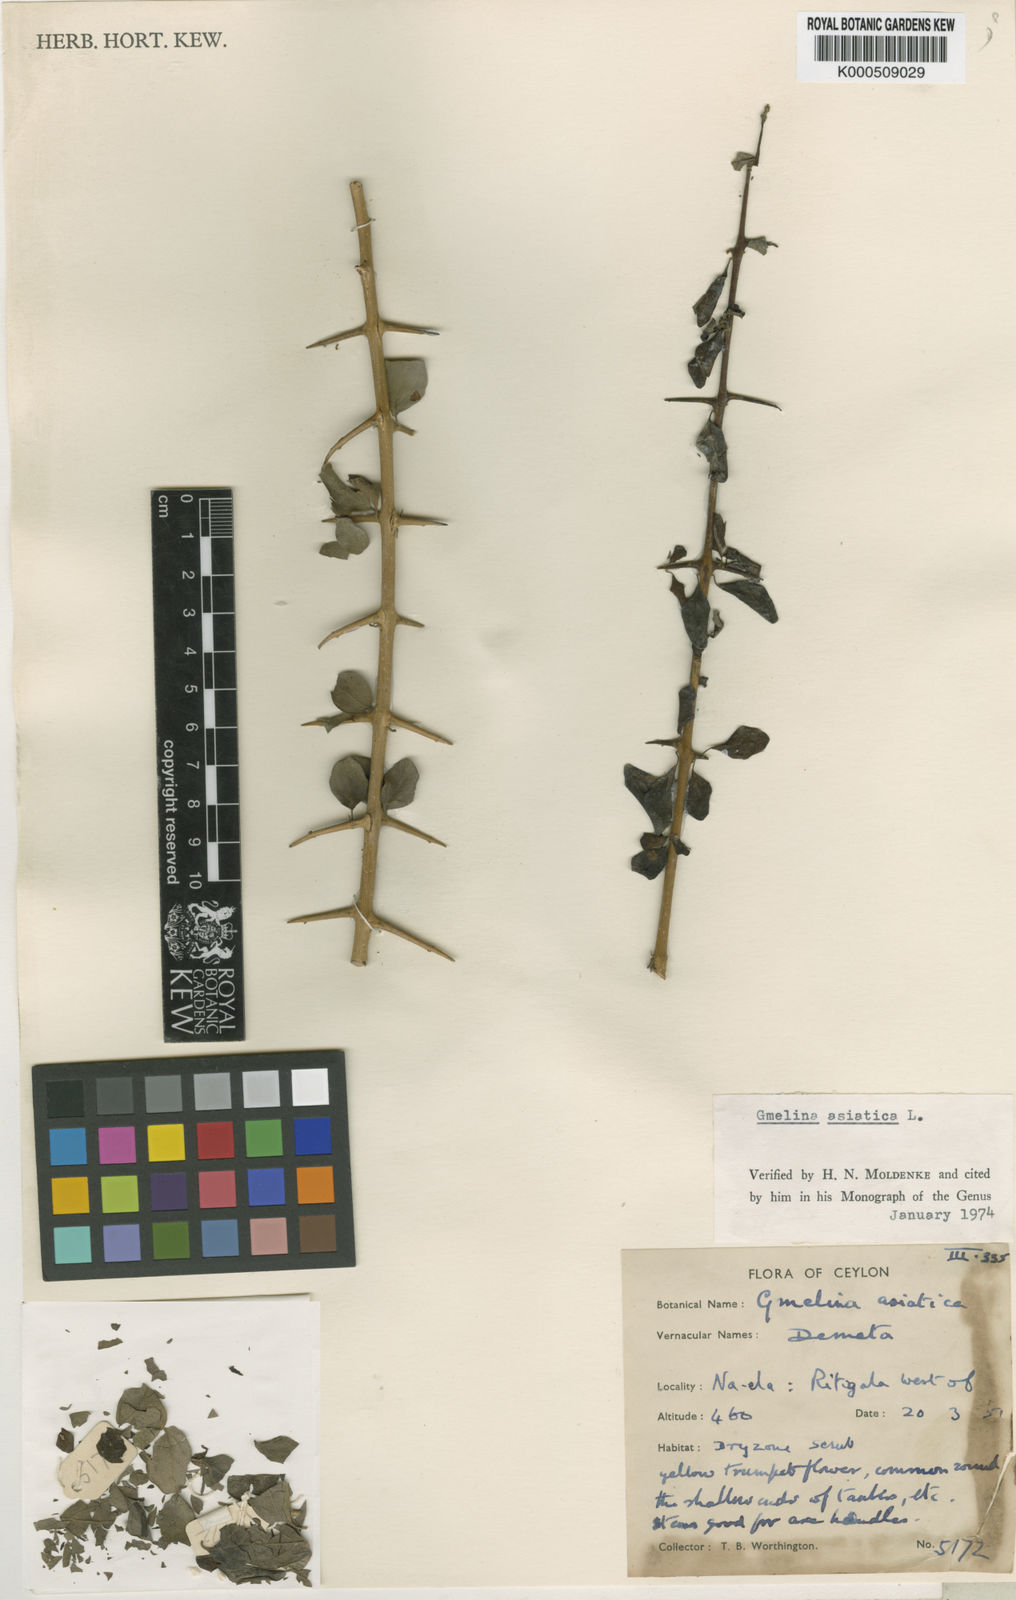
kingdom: Plantae
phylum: Tracheophyta
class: Magnoliopsida
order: Lamiales
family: Lamiaceae
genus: Gmelina
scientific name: Gmelina asiatica
